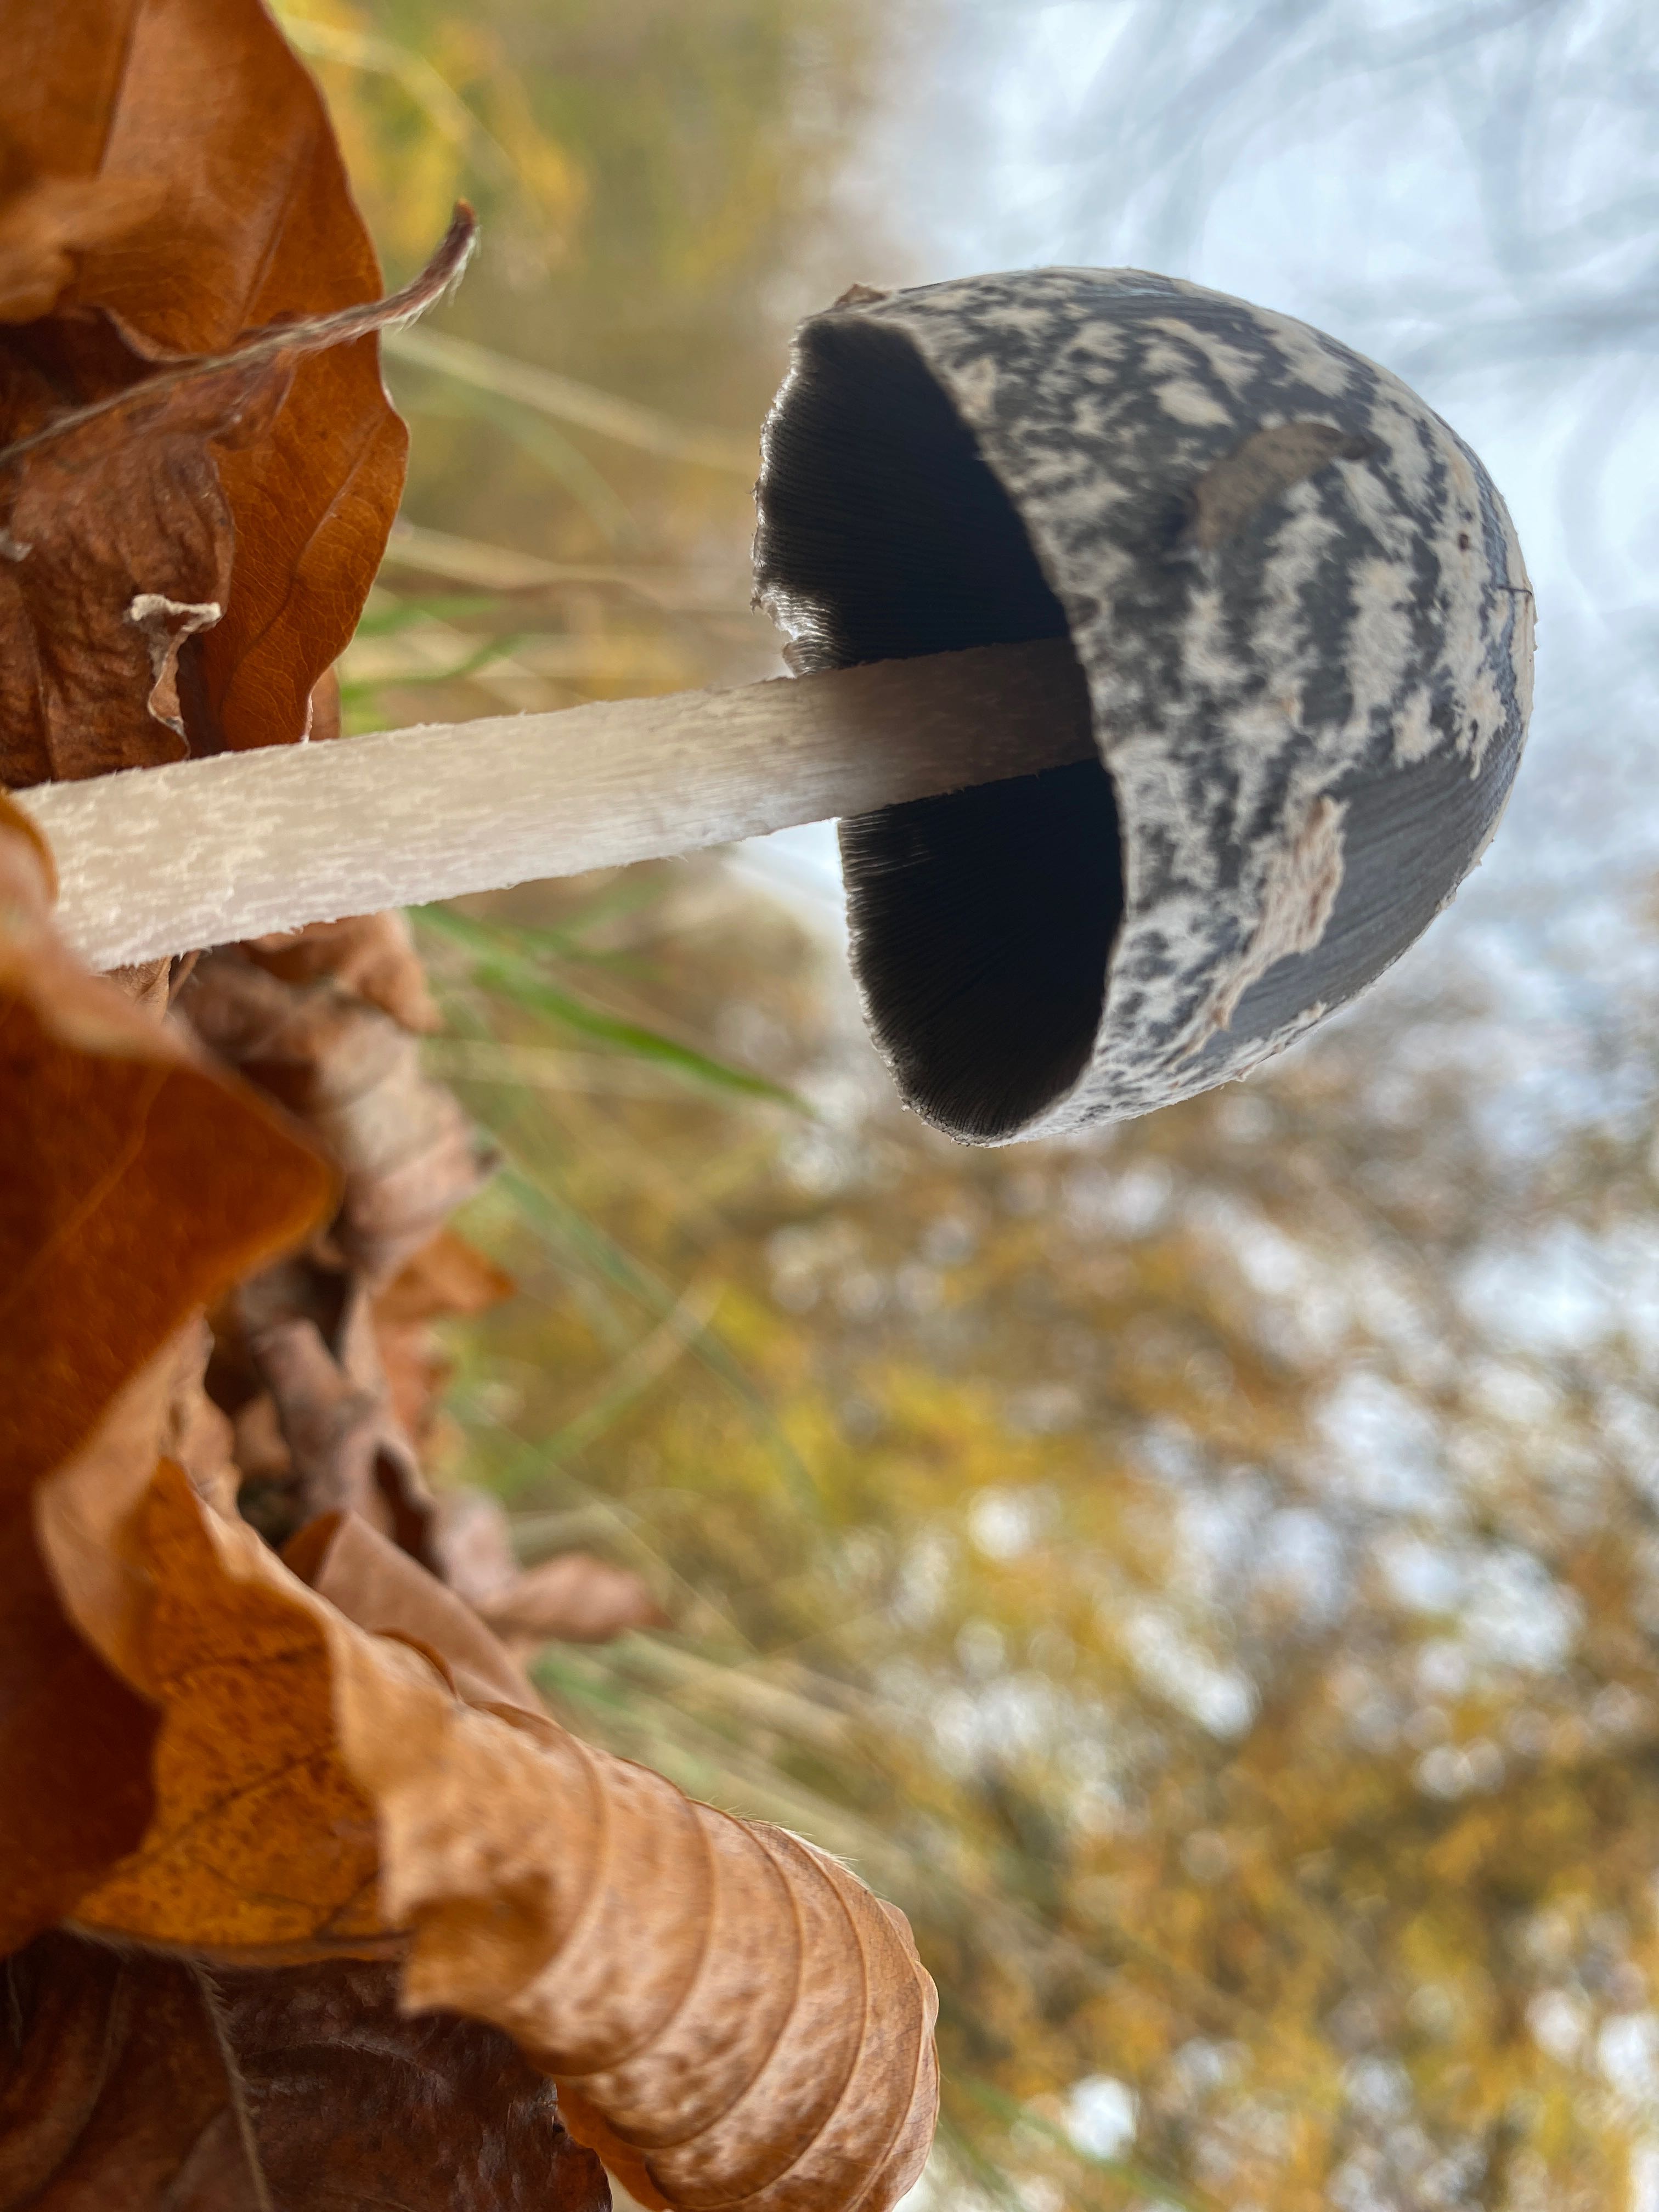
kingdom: Fungi
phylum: Basidiomycota
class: Agaricomycetes
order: Agaricales
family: Psathyrellaceae
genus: Coprinopsis
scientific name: Coprinopsis picacea
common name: skade-blækhat
